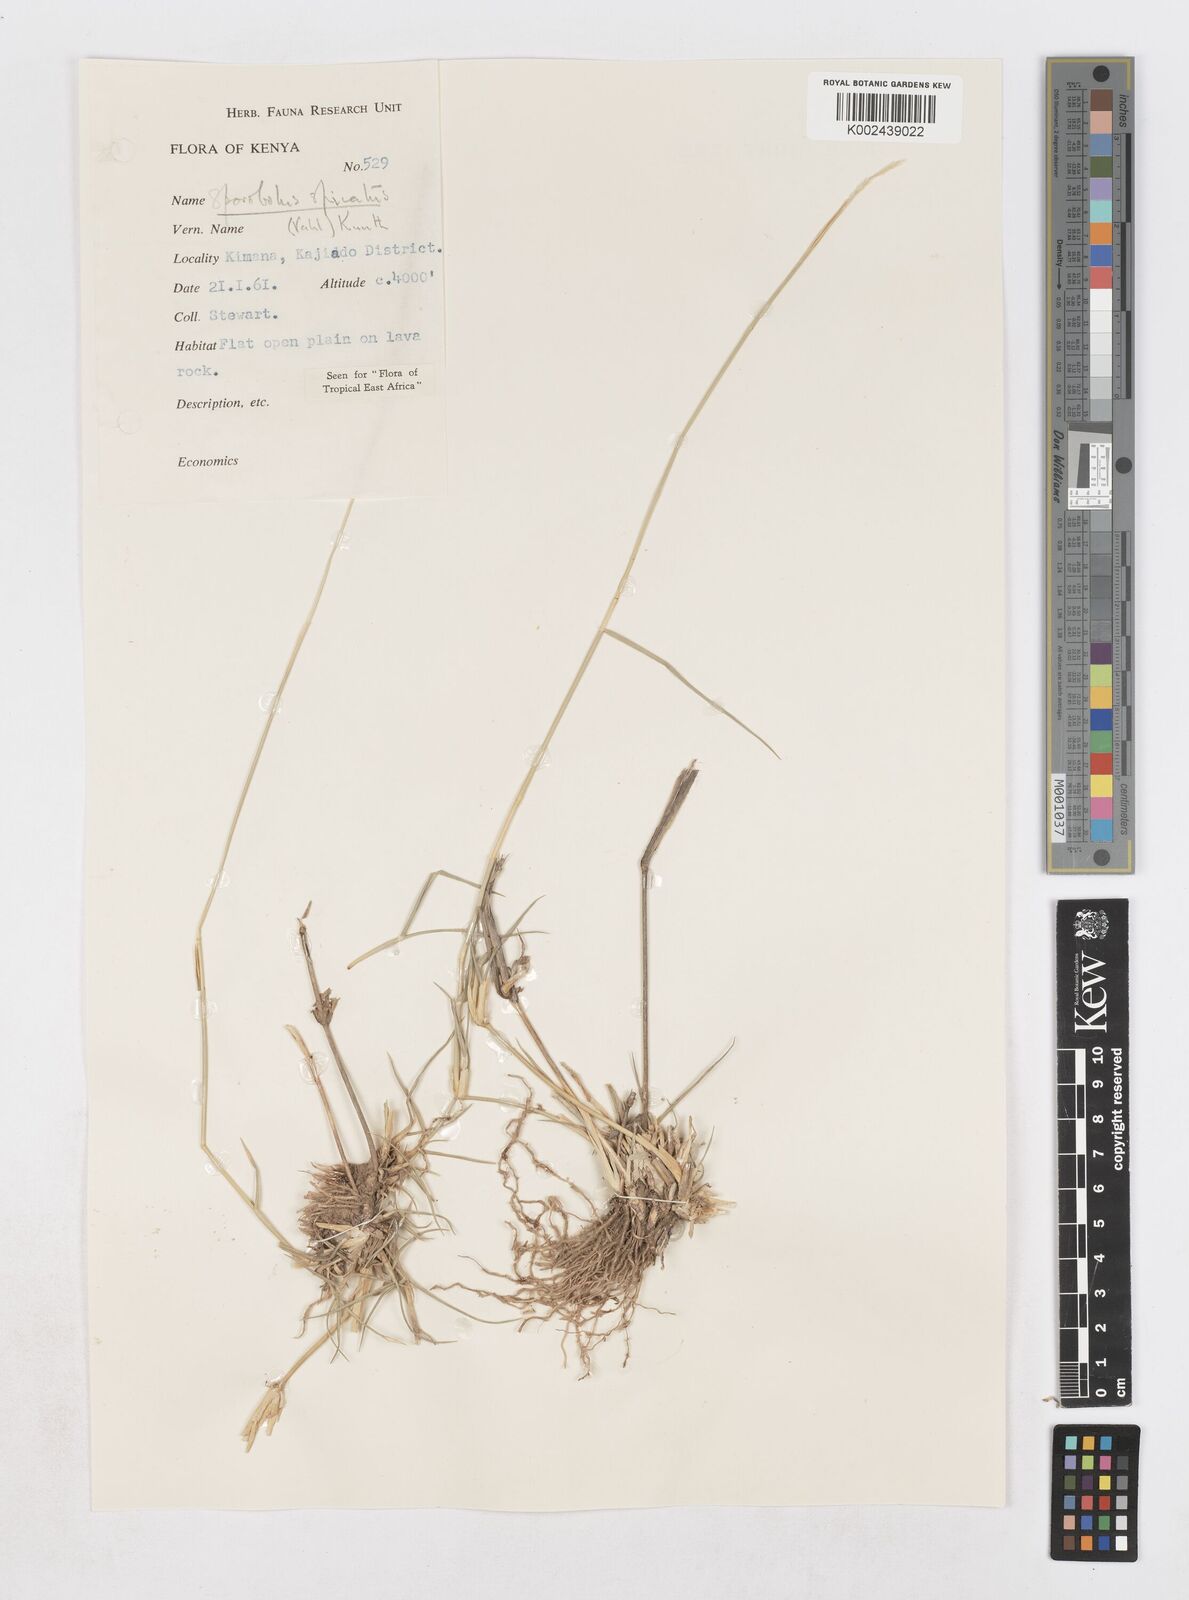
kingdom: Plantae
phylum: Tracheophyta
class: Liliopsida
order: Poales
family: Poaceae
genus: Sporobolus
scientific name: Sporobolus spicatus
